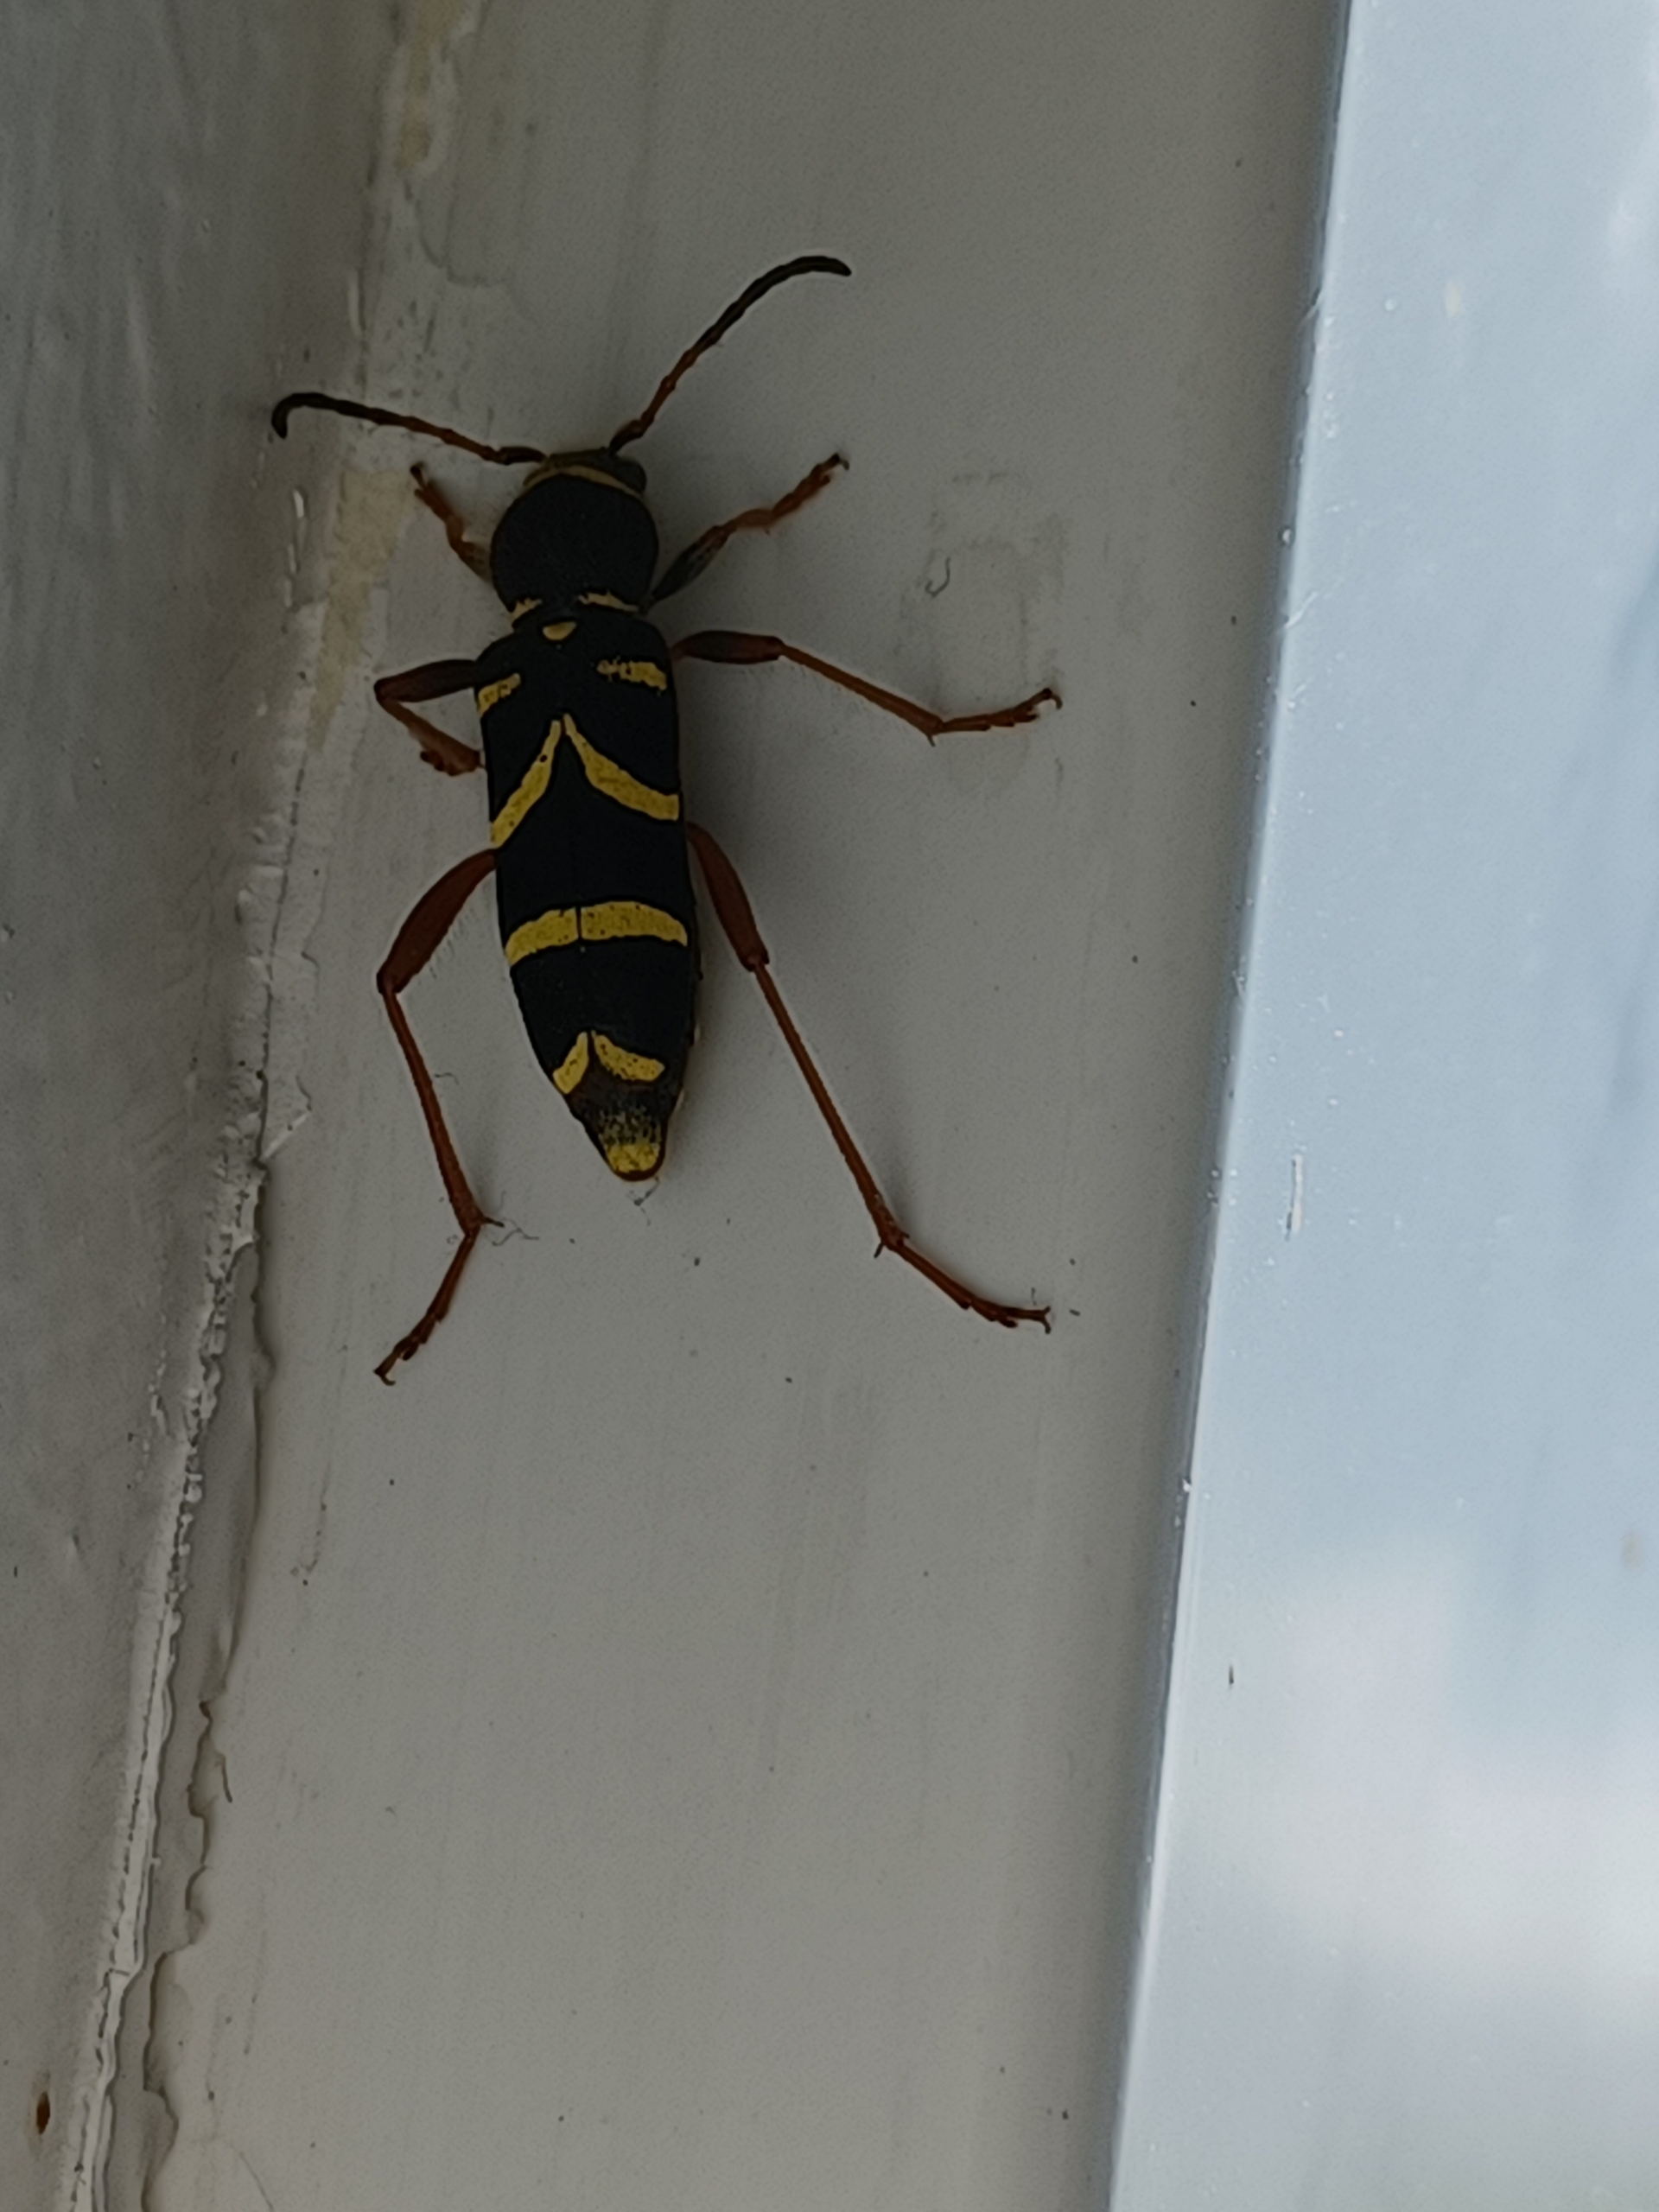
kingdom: Animalia
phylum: Arthropoda
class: Insecta
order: Coleoptera
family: Cerambycidae
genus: Clytus
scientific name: Clytus arietis
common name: Lille hvepsebuk
